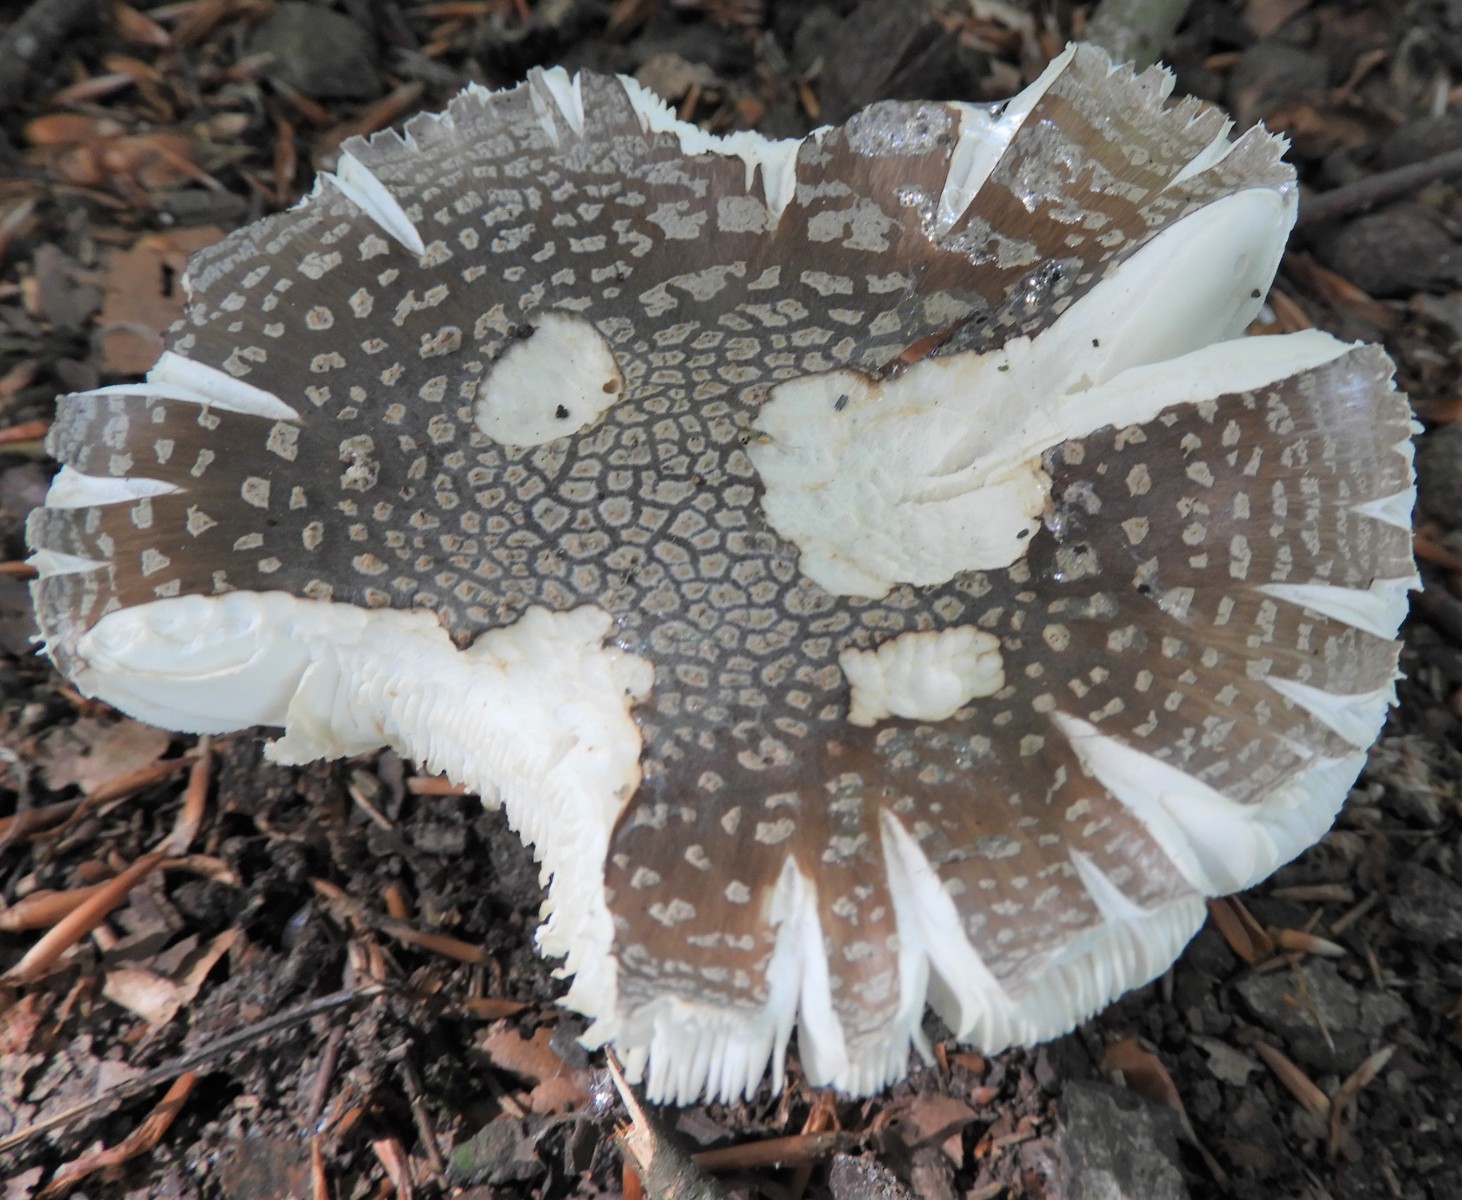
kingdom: Fungi
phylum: Basidiomycota
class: Agaricomycetes
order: Agaricales
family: Amanitaceae
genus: Amanita
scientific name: Amanita
